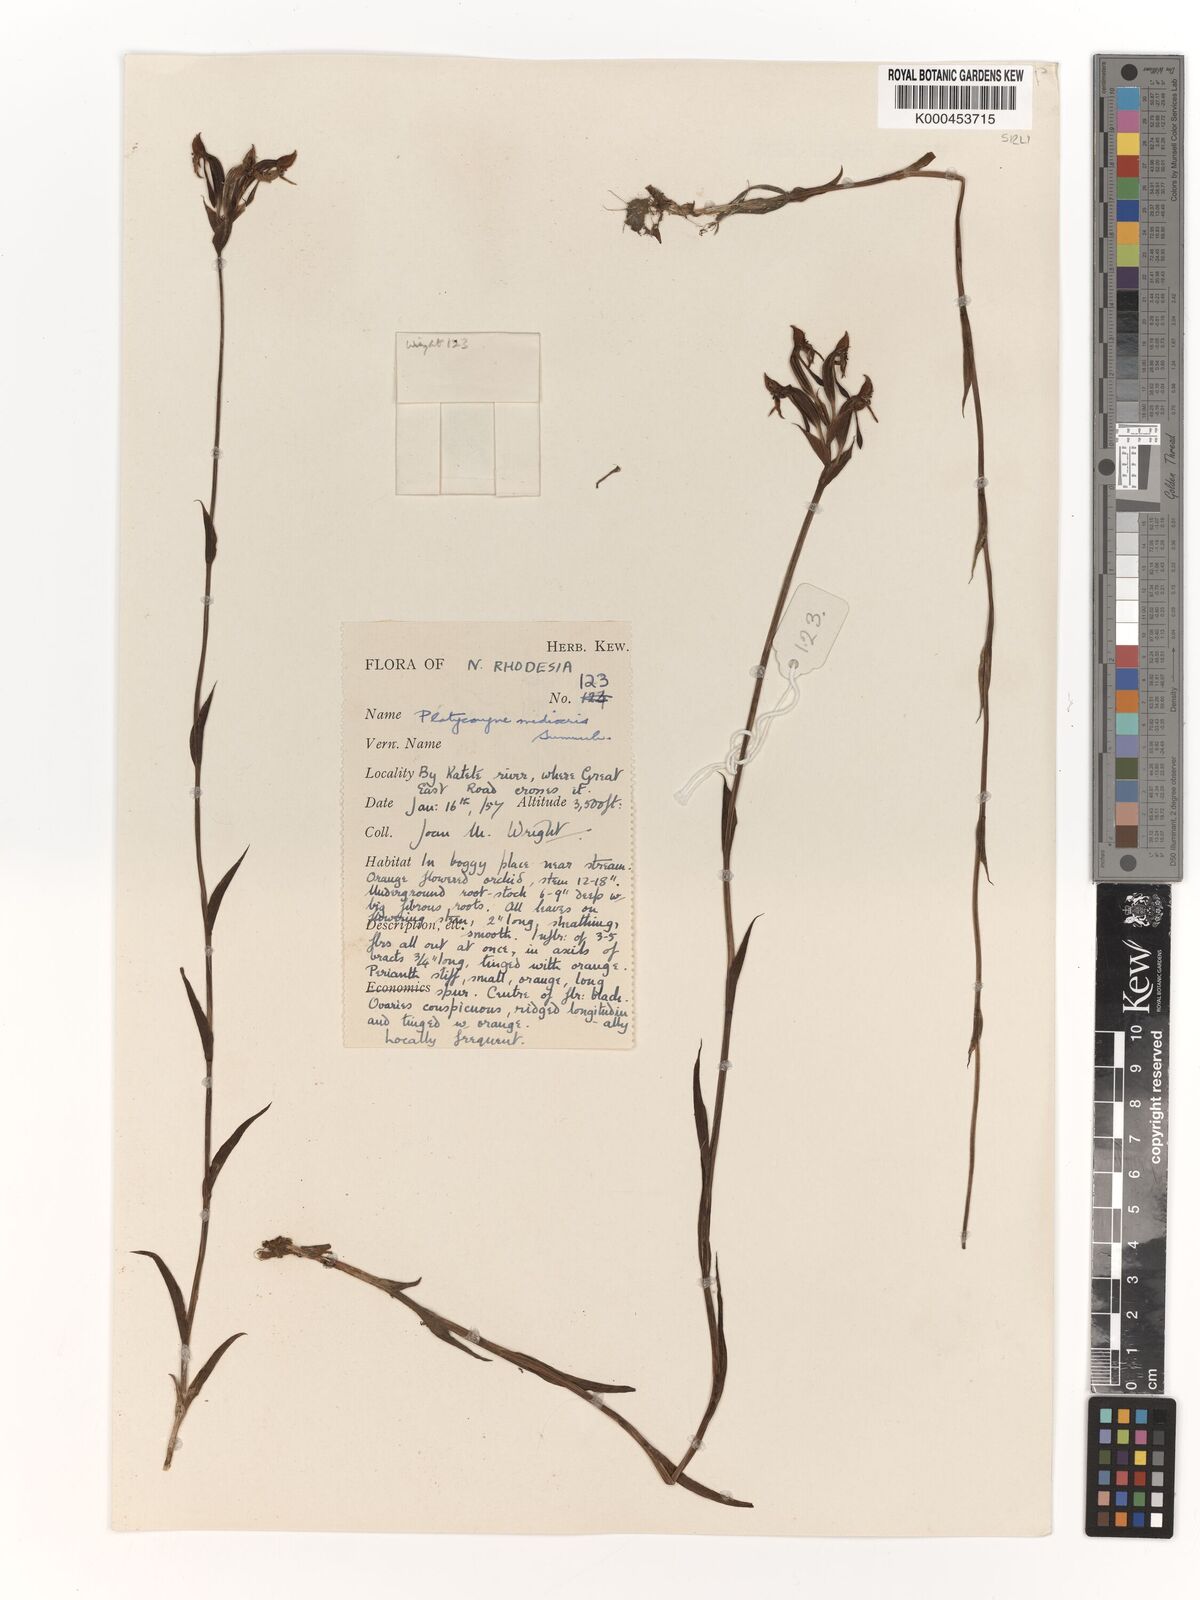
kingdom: Plantae
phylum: Tracheophyta
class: Liliopsida
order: Asparagales
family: Orchidaceae
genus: Platycoryne
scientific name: Platycoryne mediocris
